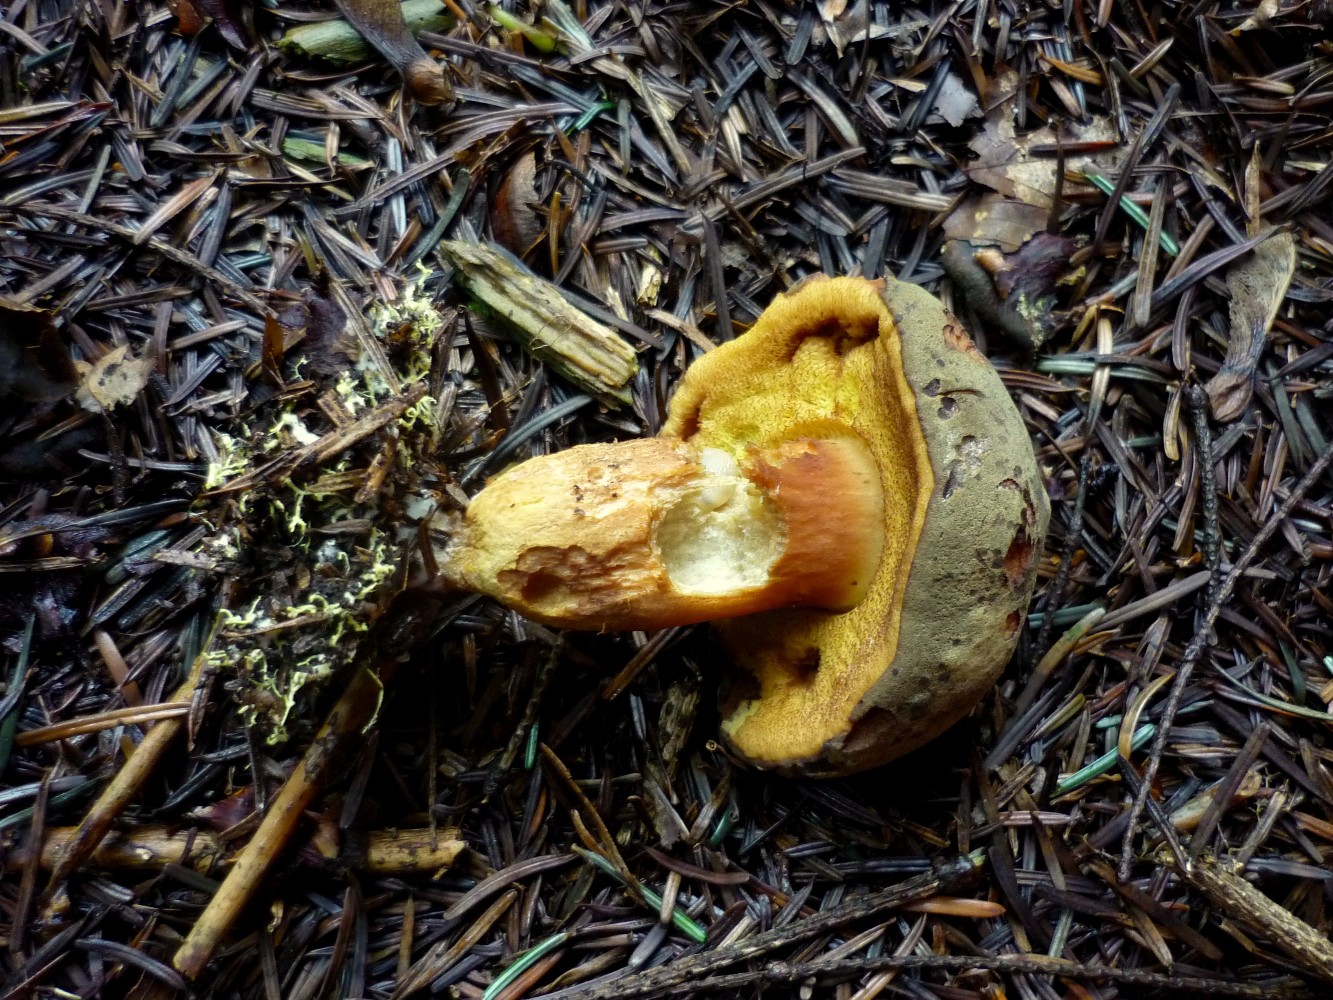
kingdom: Fungi
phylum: Basidiomycota
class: Agaricomycetes
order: Boletales
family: Boletaceae
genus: Xerocomus
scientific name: Xerocomus ferrugineus
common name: vaskeskinds-rørhat
